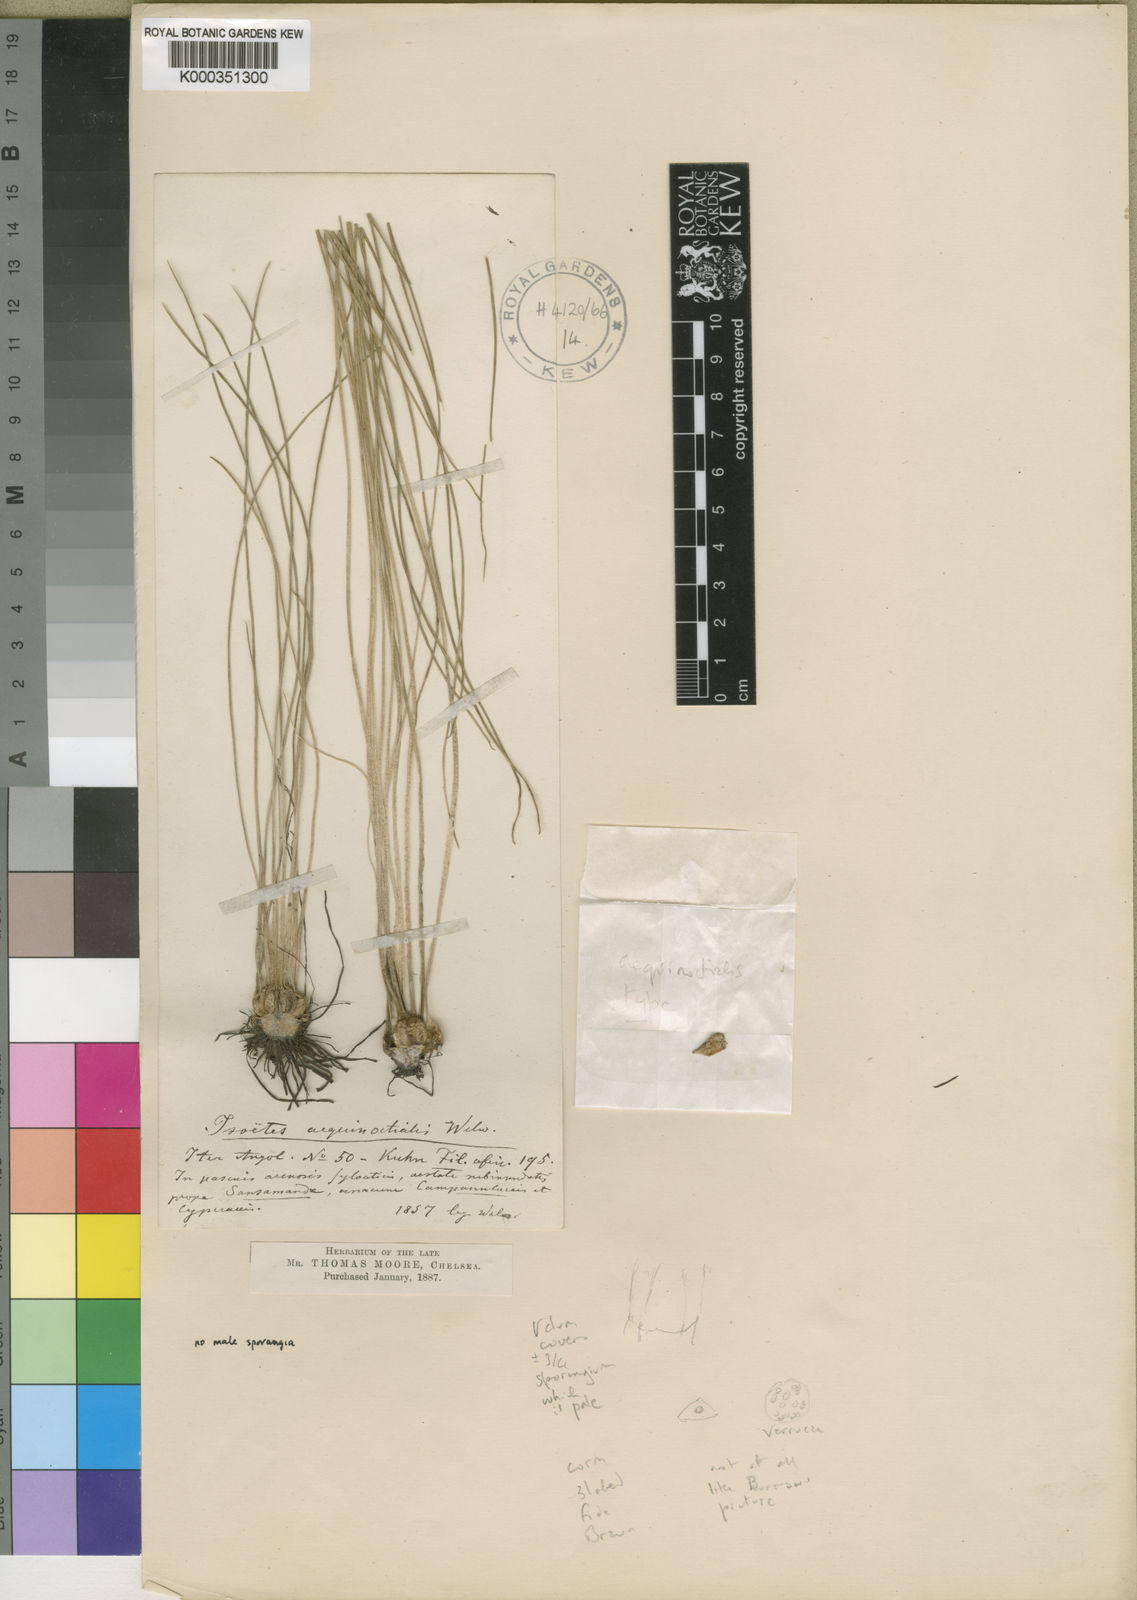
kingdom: Plantae
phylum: Tracheophyta
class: Lycopodiopsida
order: Isoetales
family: Isoetaceae
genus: Isoetes
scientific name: Isoetes
